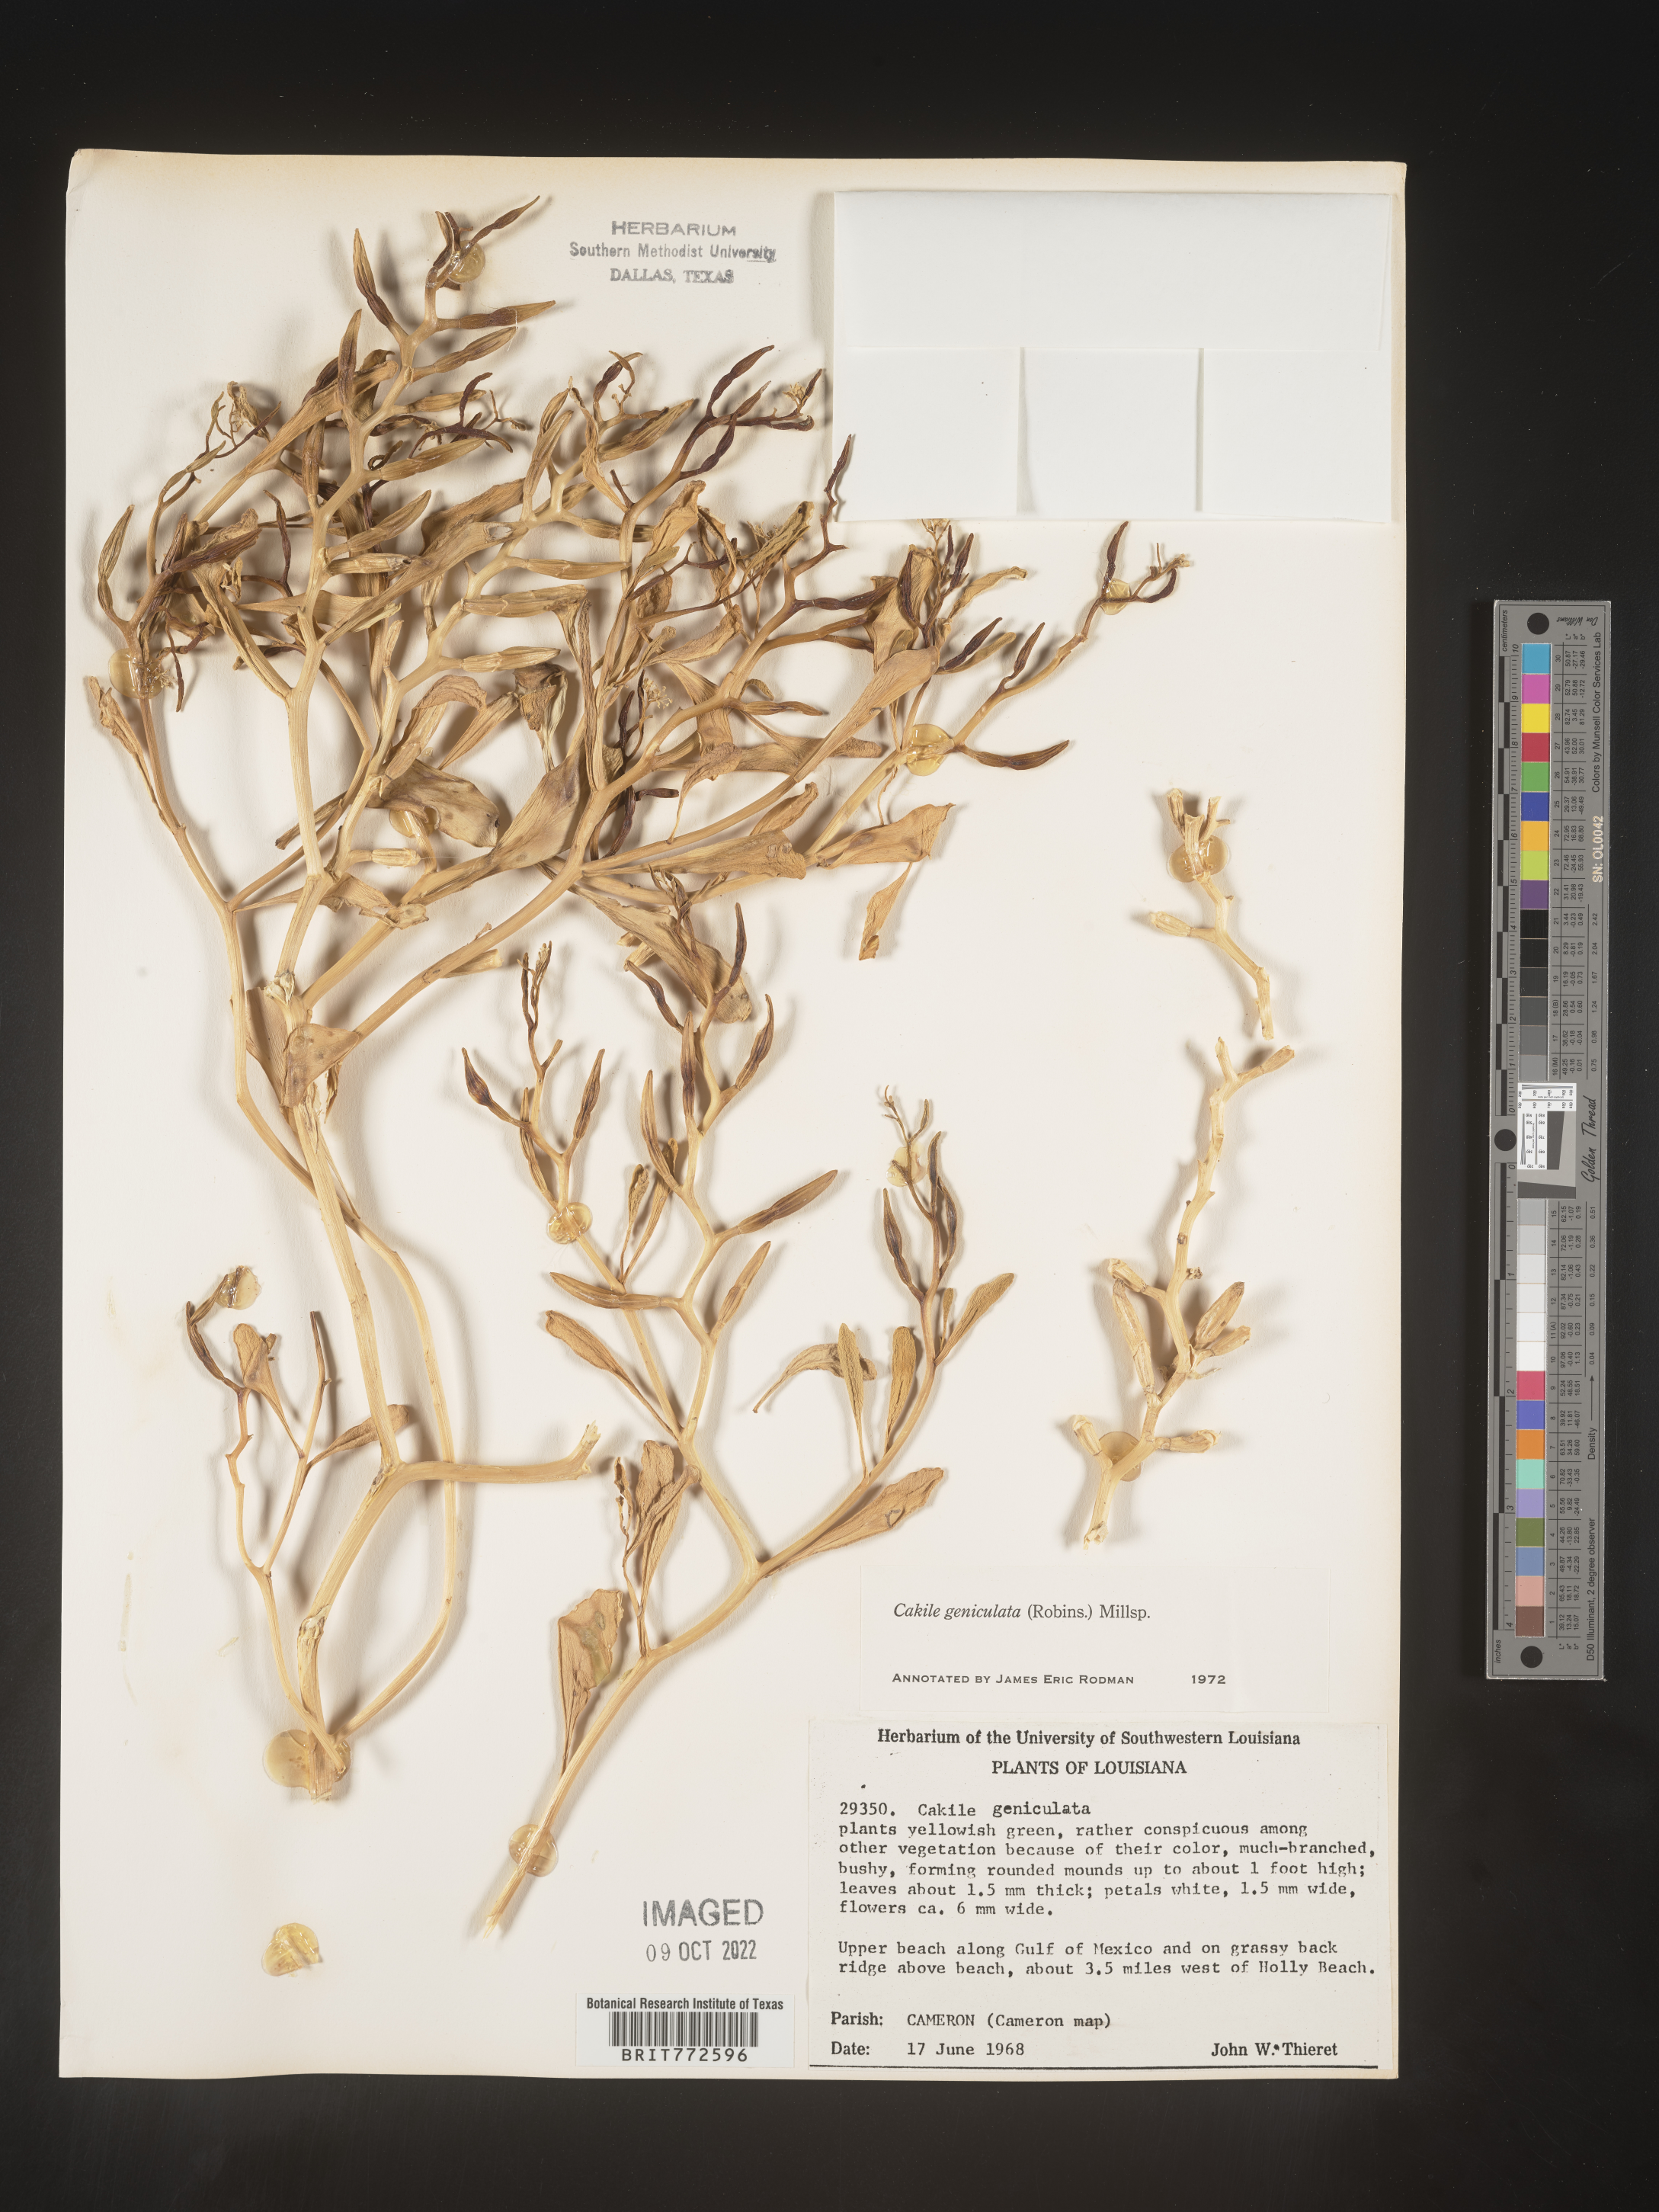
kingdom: Plantae
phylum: Tracheophyta
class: Magnoliopsida
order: Brassicales
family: Brassicaceae
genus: Cakile
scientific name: Cakile geniculata
